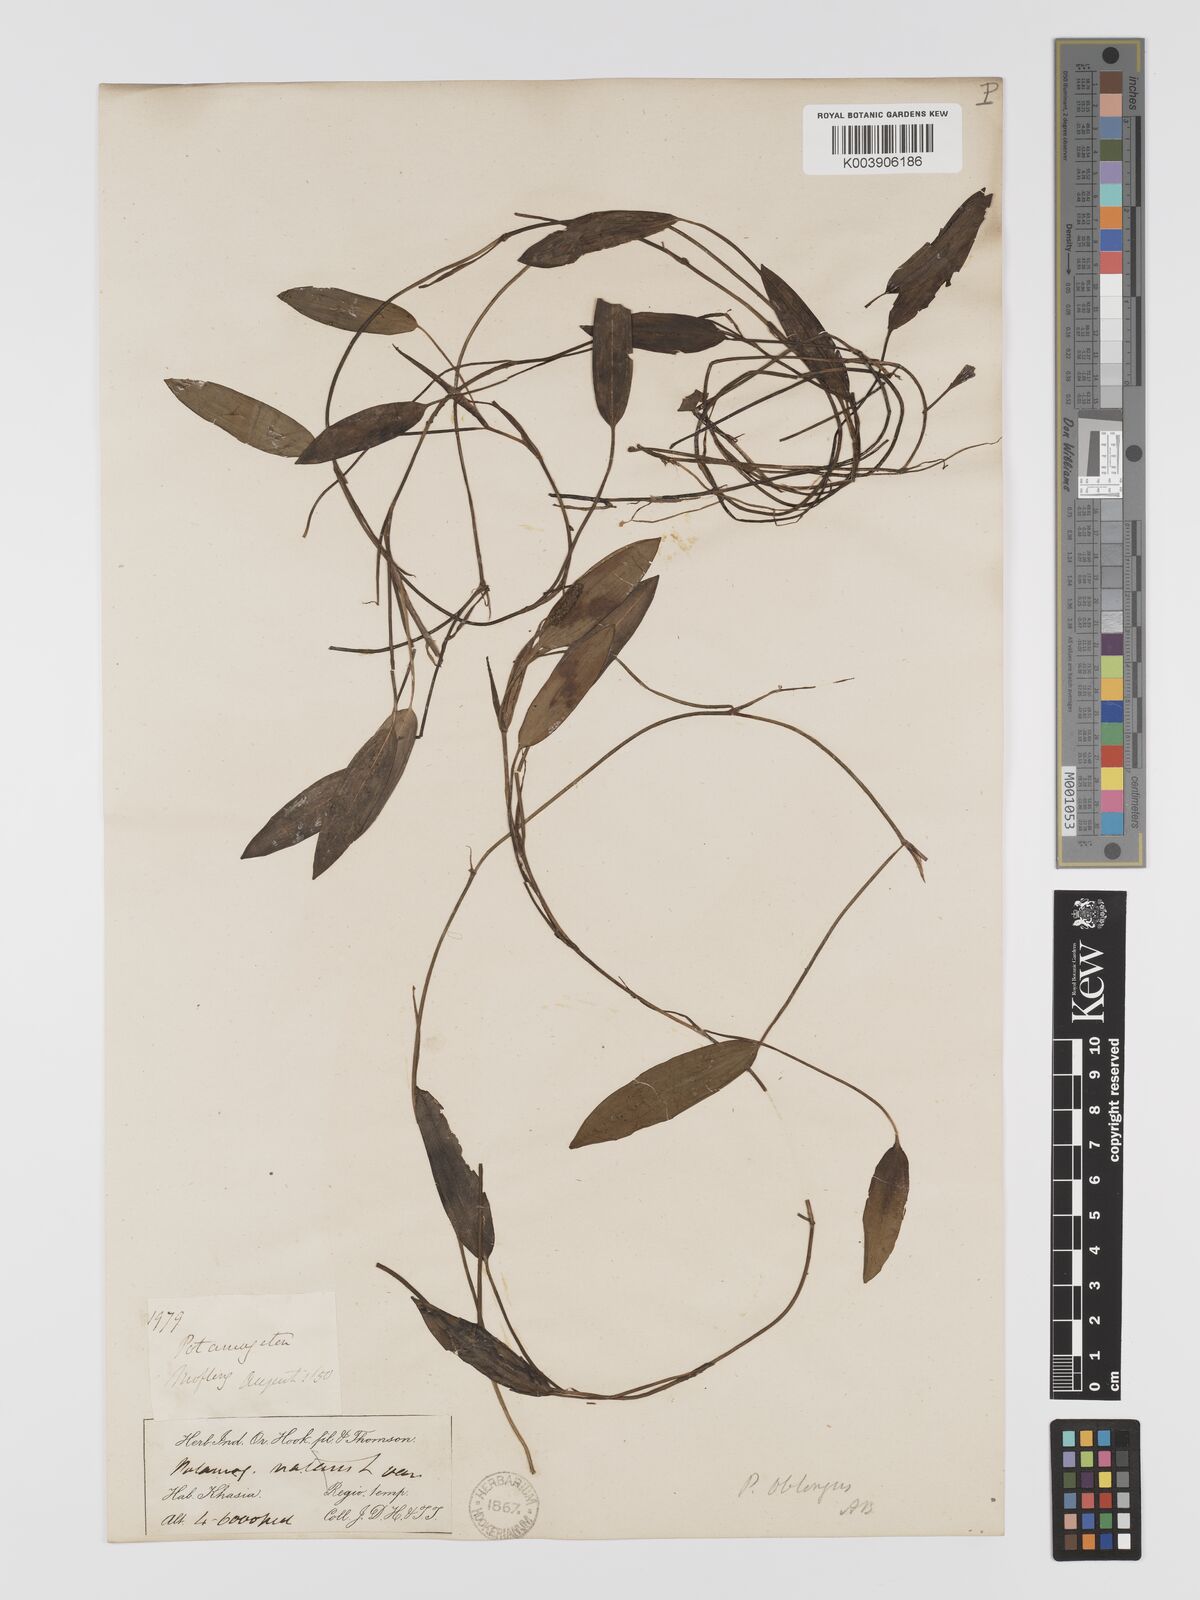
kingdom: Plantae
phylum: Tracheophyta
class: Liliopsida
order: Alismatales
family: Potamogetonaceae
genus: Potamogeton
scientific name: Potamogeton yamagataensis
